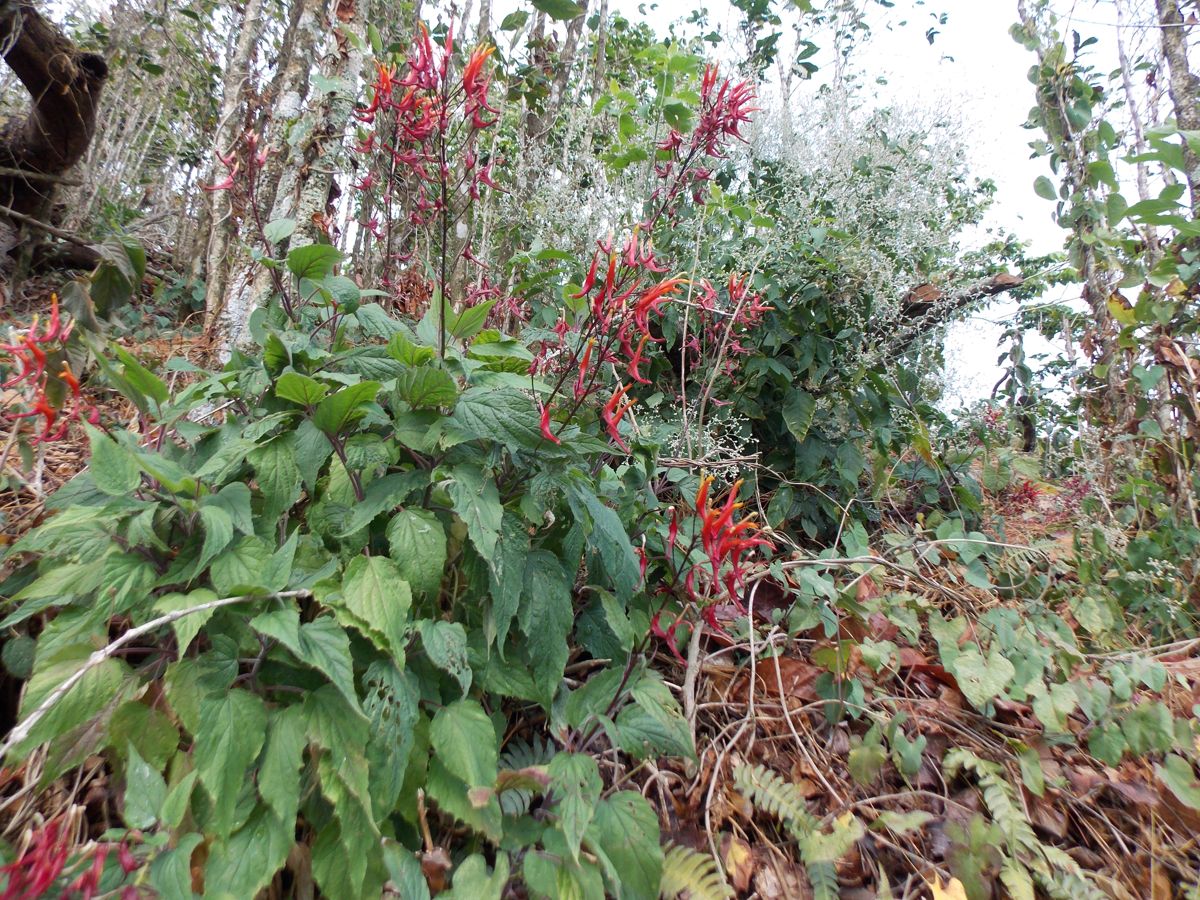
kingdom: Plantae
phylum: Tracheophyta
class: Magnoliopsida
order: Asterales
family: Campanulaceae
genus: Heterotoma
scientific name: Heterotoma lobelioides
